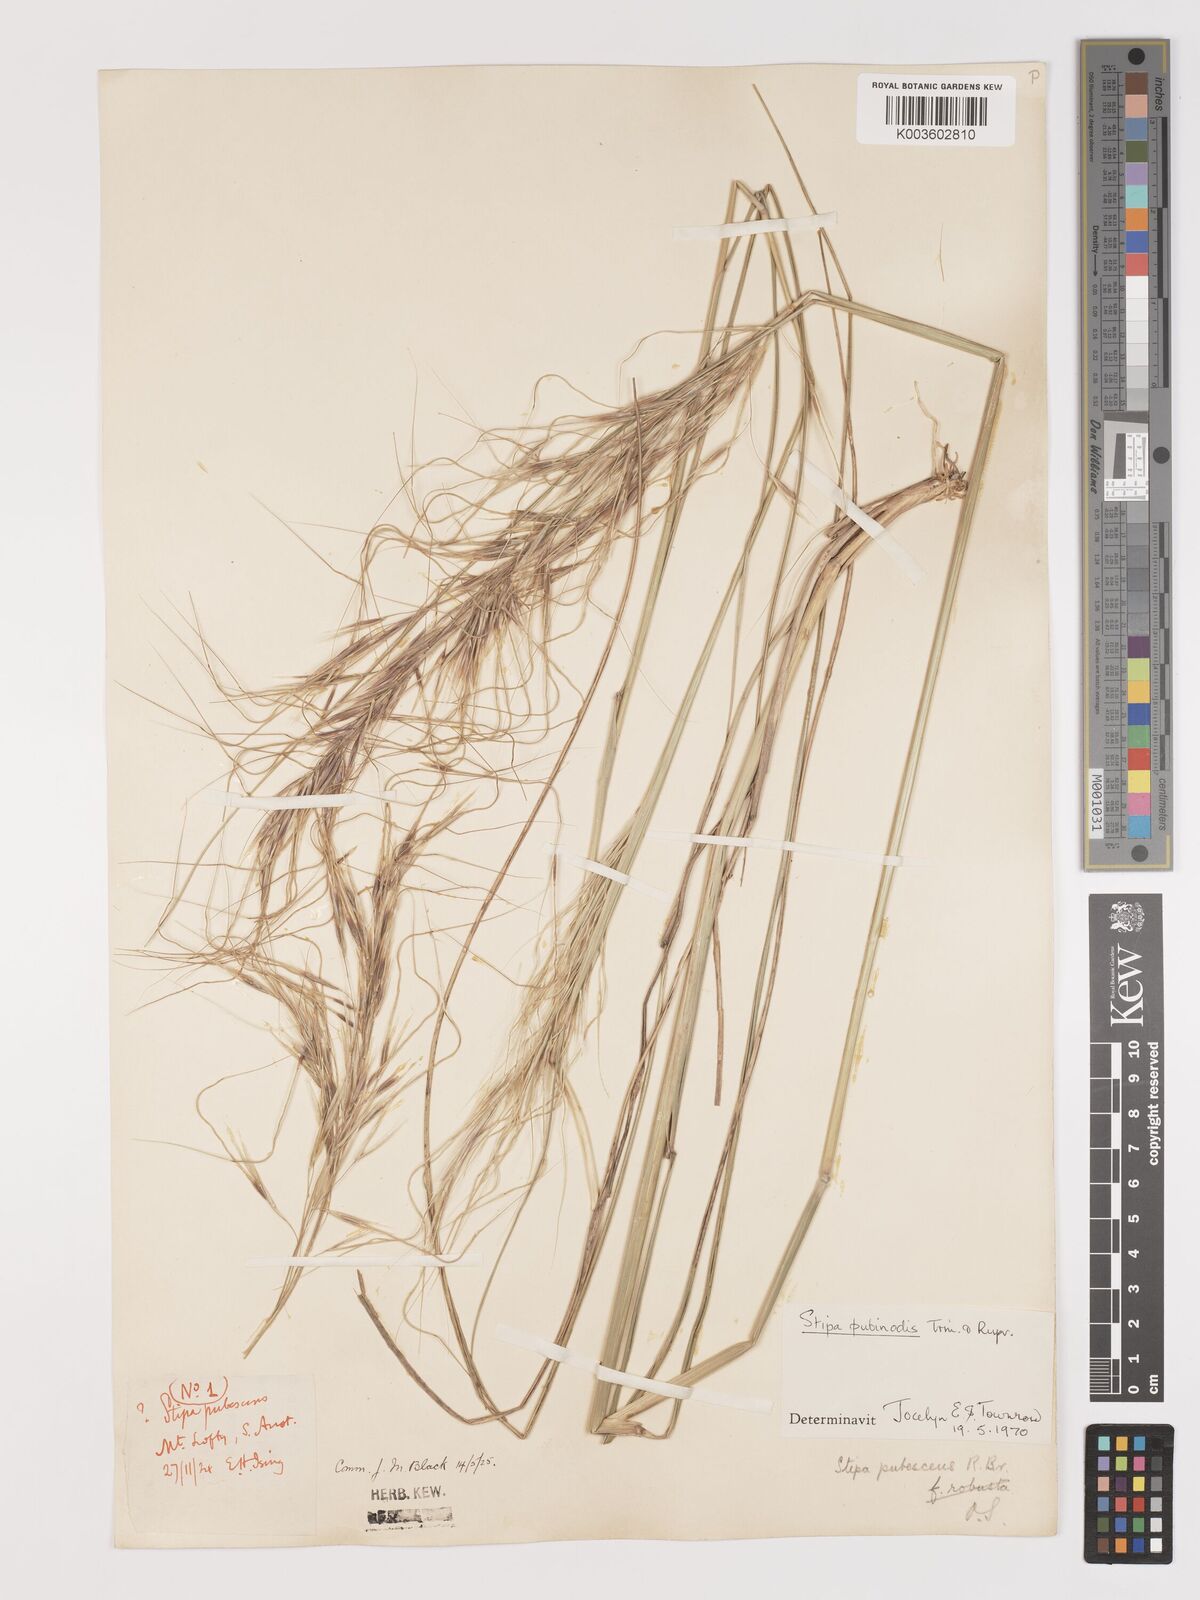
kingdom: Plantae
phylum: Tracheophyta
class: Liliopsida
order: Poales
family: Poaceae
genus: Austrostipa
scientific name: Austrostipa pubescens
